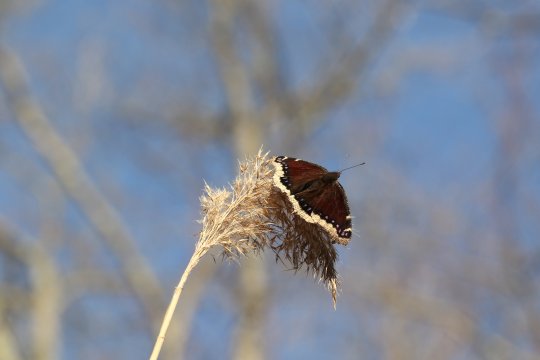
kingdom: Animalia
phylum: Arthropoda
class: Insecta
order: Lepidoptera
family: Nymphalidae
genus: Nymphalis
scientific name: Nymphalis antiopa
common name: Mourning Cloak
